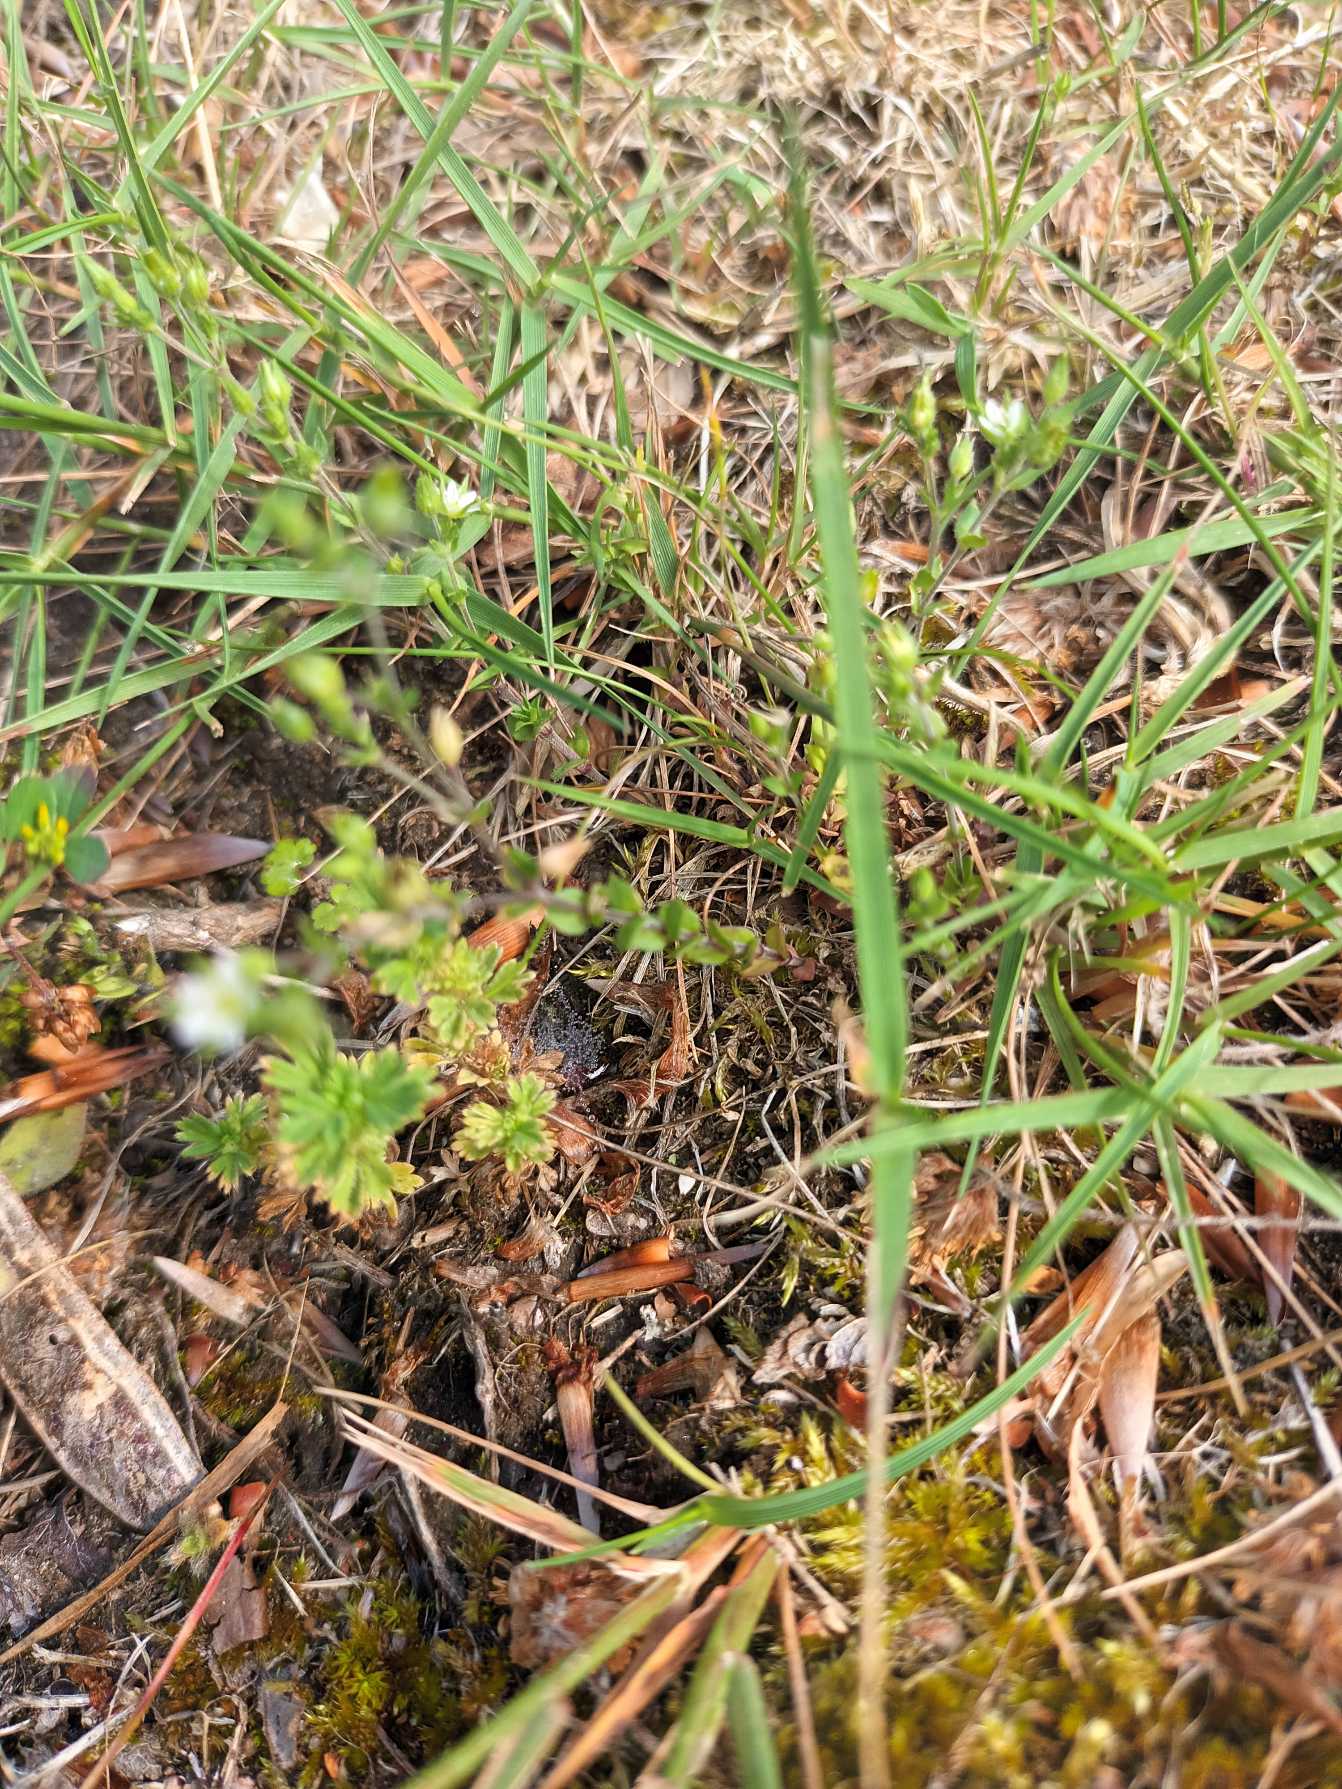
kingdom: Plantae
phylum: Tracheophyta
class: Magnoliopsida
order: Rosales
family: Rosaceae
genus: Aphanes
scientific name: Aphanes arvensis
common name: Dværgløvefod
